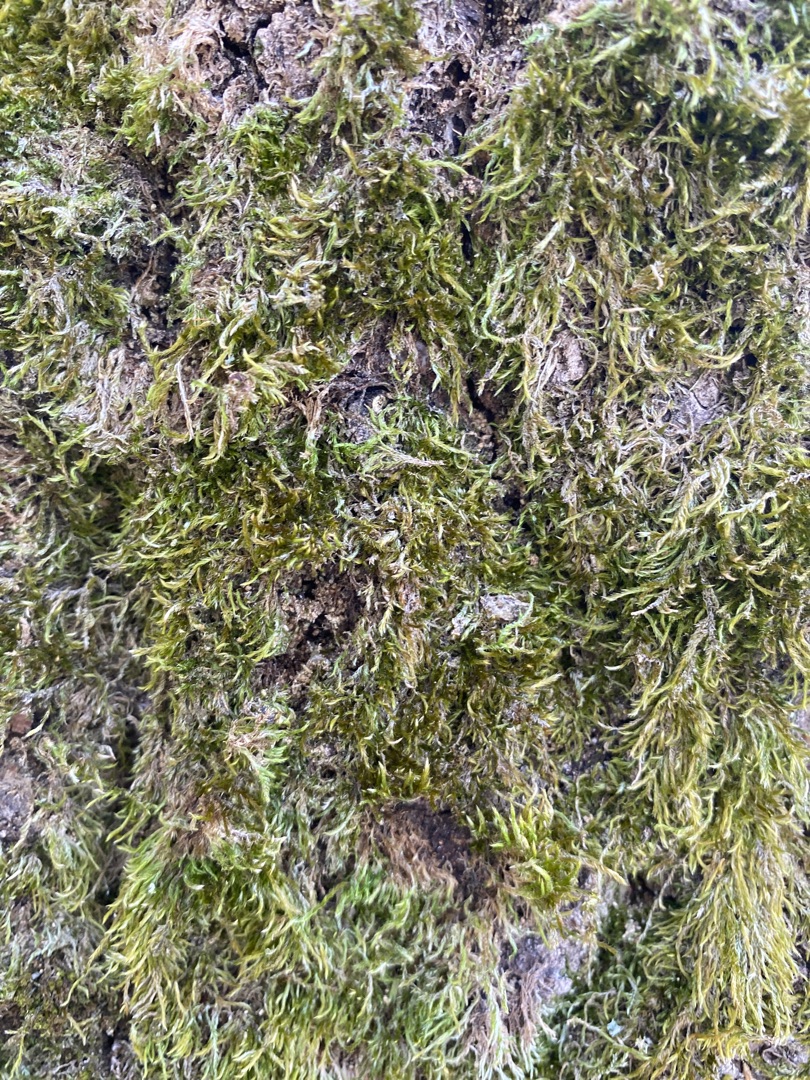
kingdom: Plantae
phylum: Bryophyta
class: Bryopsida
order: Hypnales
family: Hypnaceae
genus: Hypnum
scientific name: Hypnum
